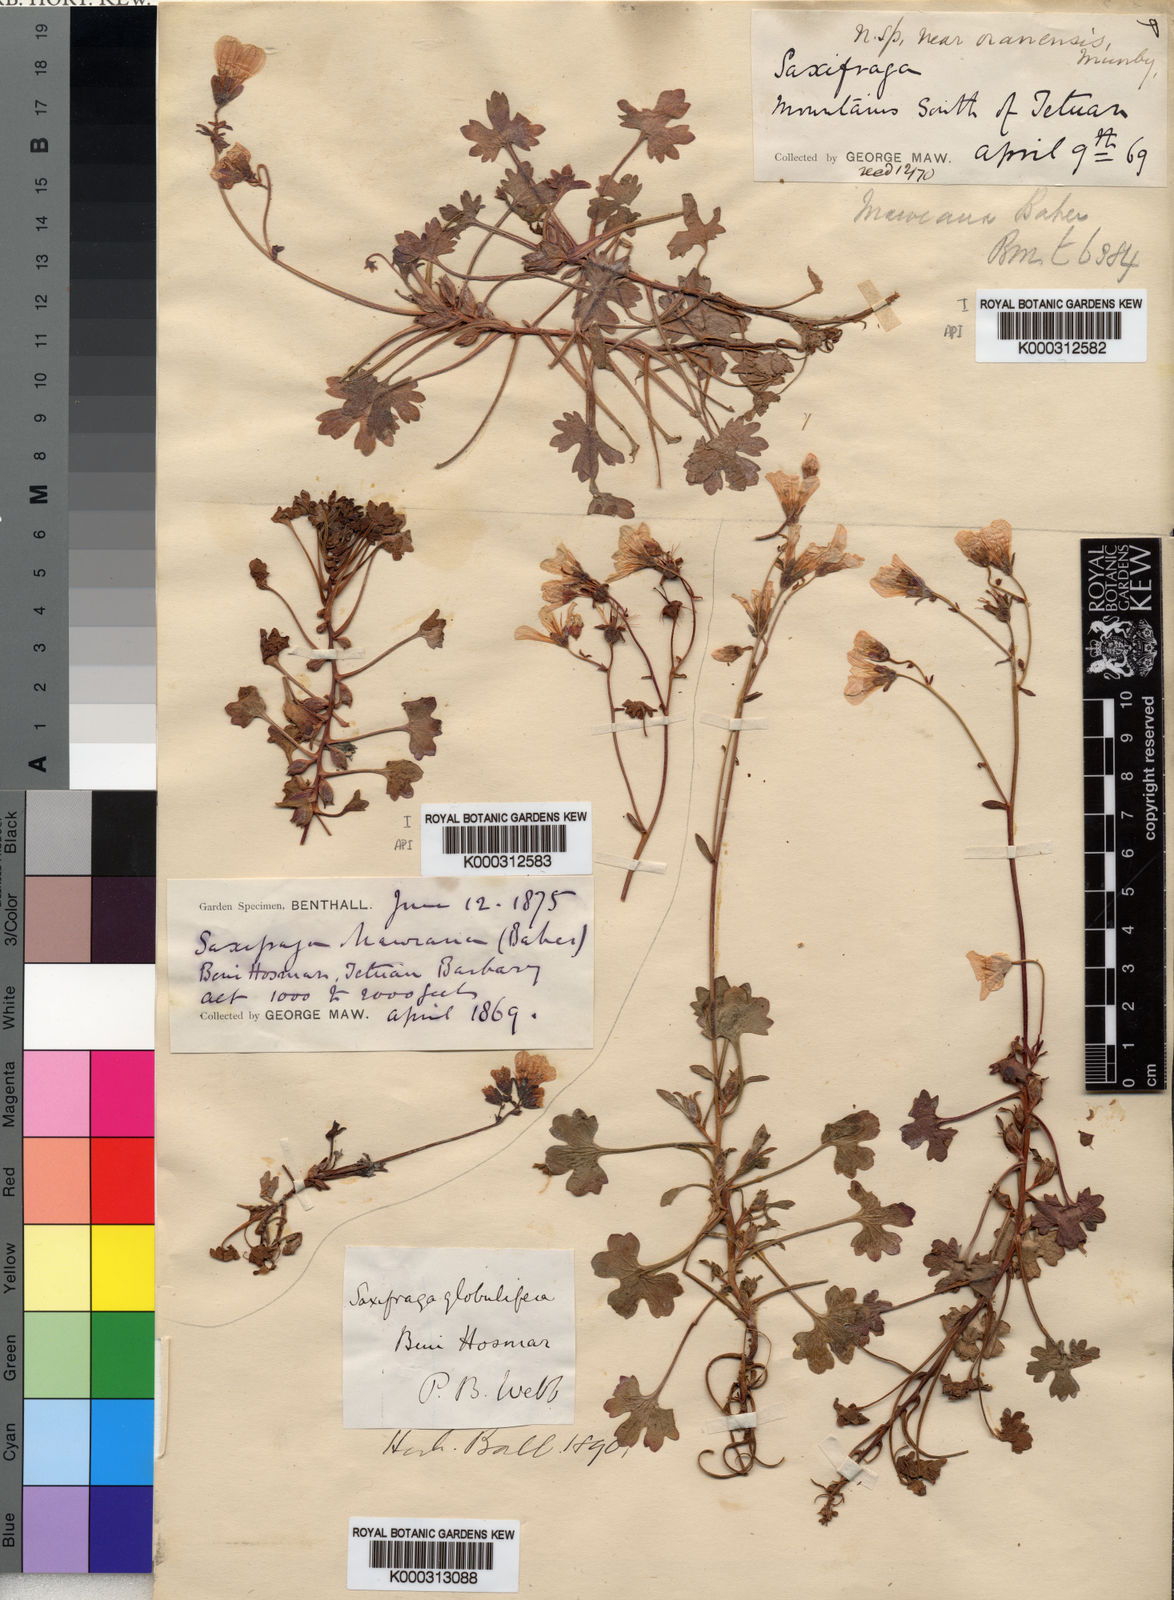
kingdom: Plantae
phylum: Tracheophyta
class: Magnoliopsida
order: Saxifragales
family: Saxifragaceae
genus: Saxifraga
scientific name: Saxifraga maweana
